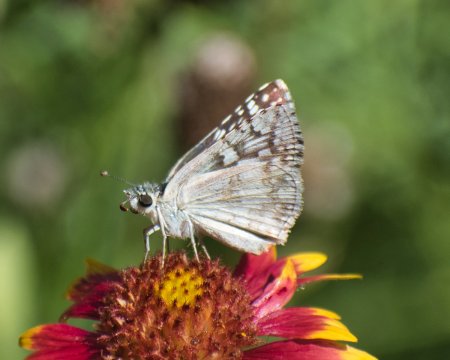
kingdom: Animalia
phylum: Arthropoda
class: Insecta
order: Lepidoptera
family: Hesperiidae
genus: Pyrgus
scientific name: Pyrgus oileus
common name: Desert Checkered-Skipper
